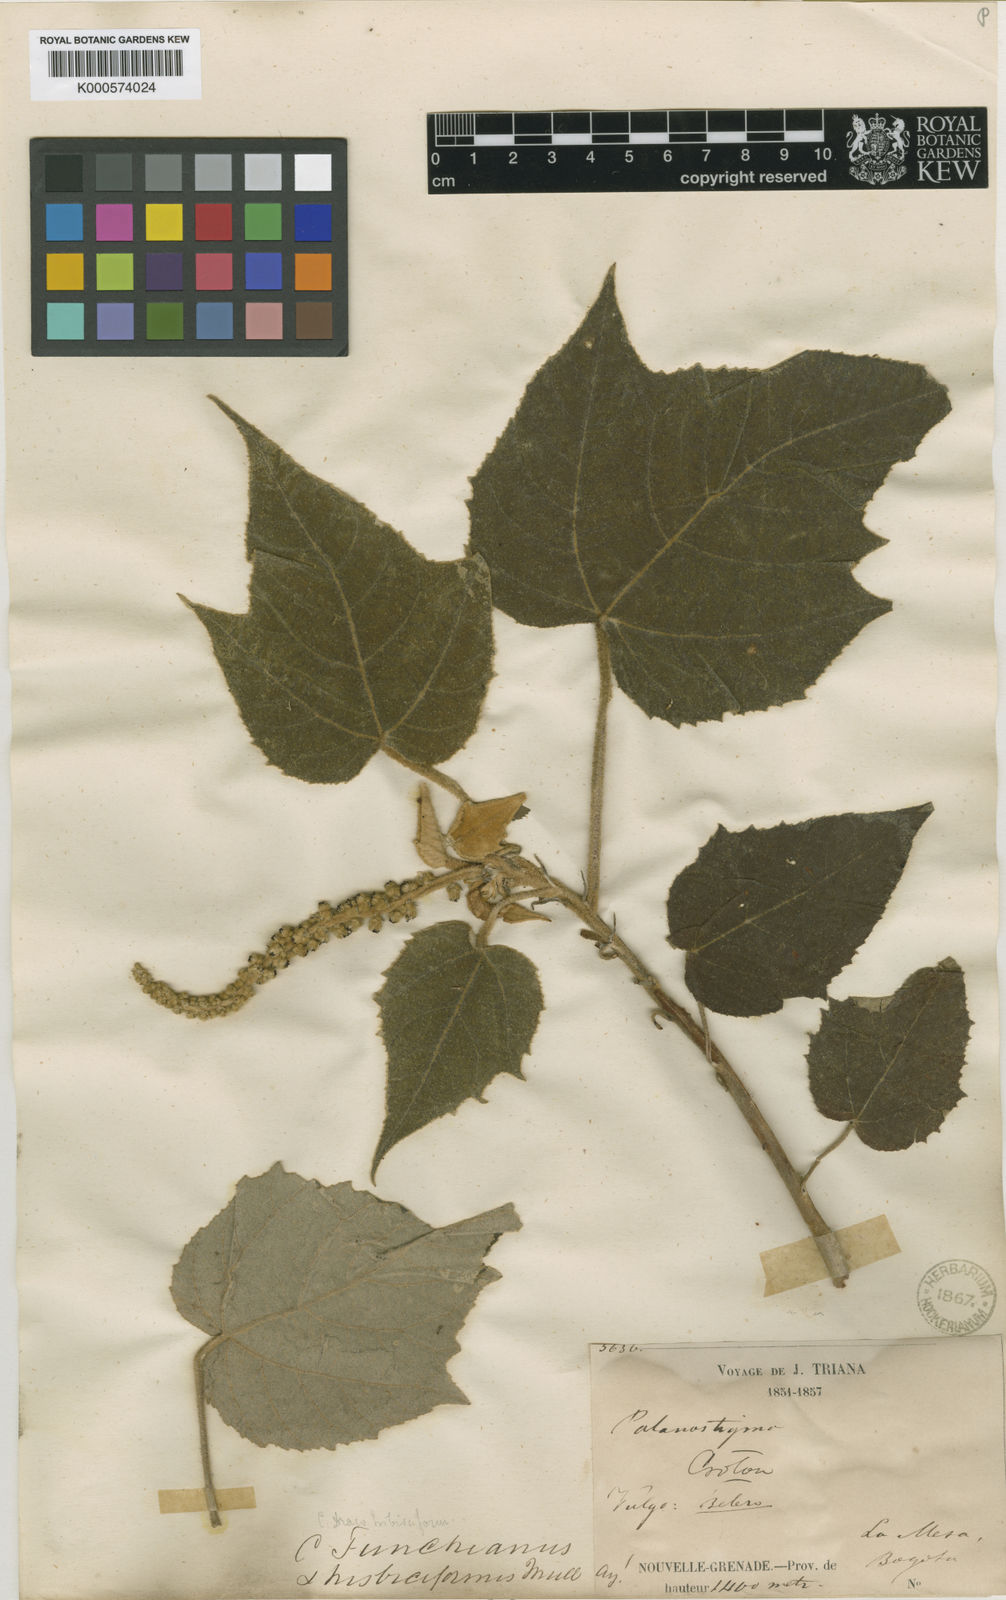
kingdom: Plantae
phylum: Tracheophyta
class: Magnoliopsida
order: Malpighiales
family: Euphorbiaceae
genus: Croton
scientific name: Croton
